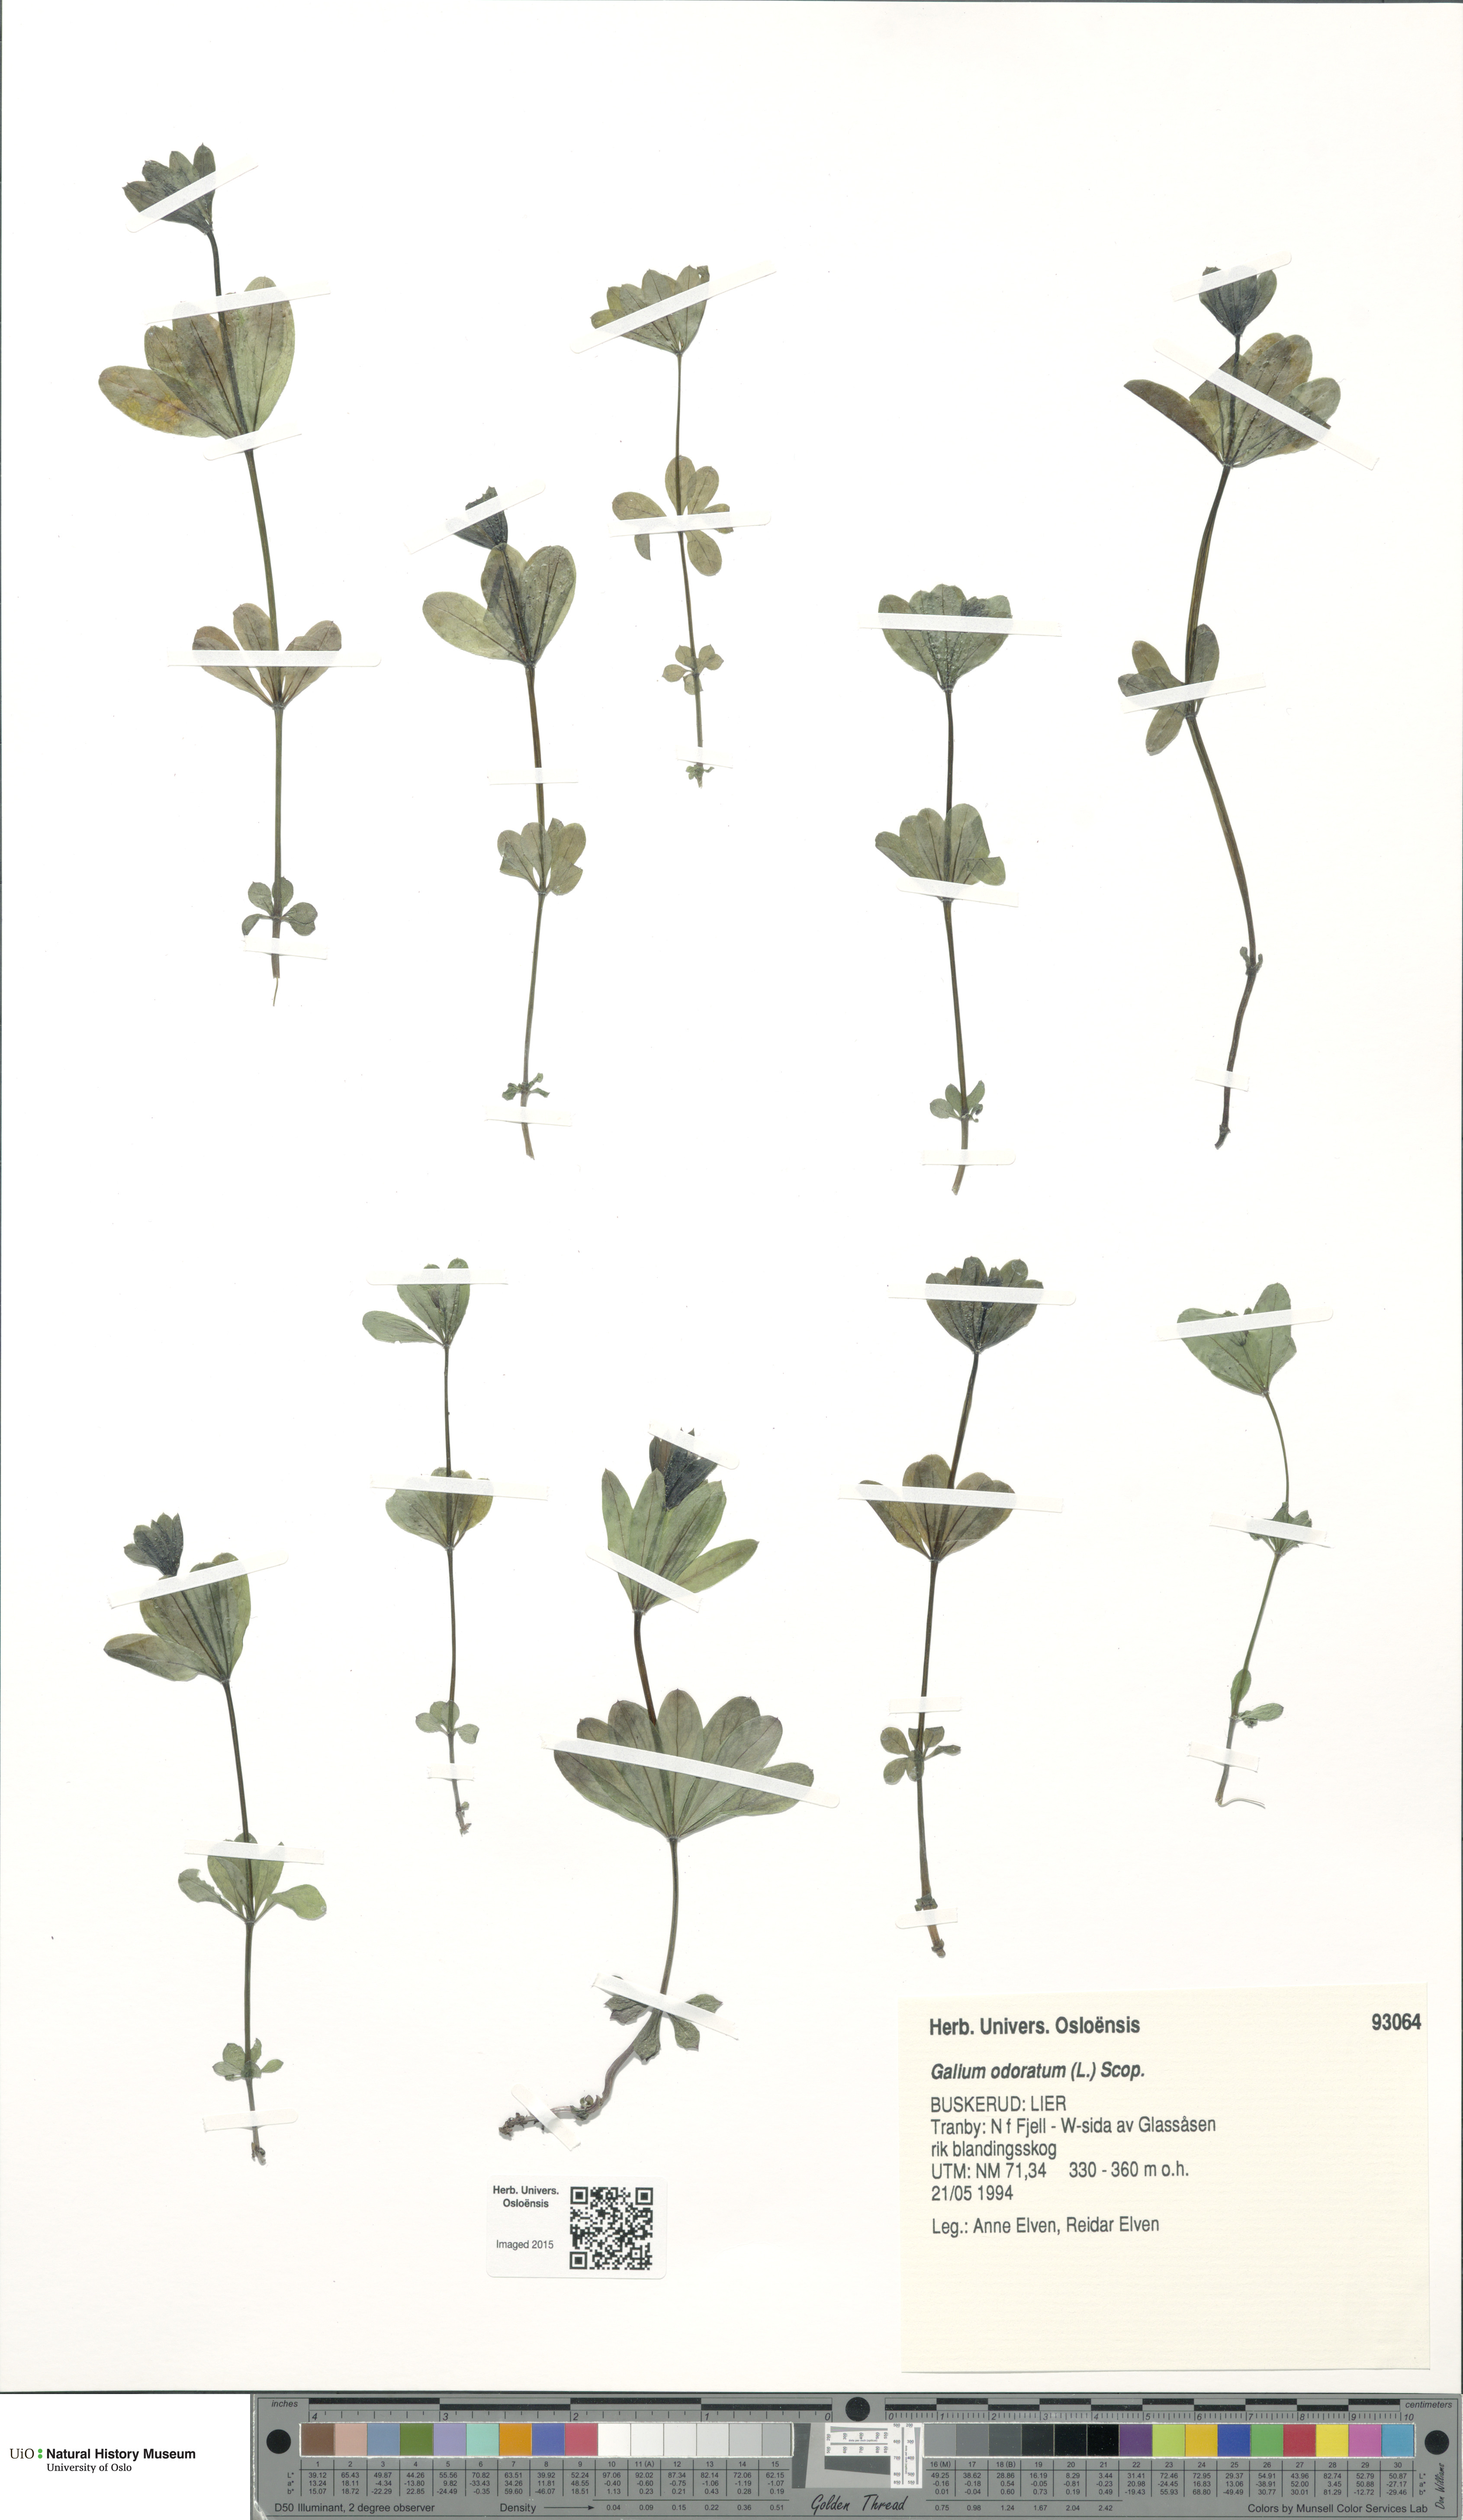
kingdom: Plantae
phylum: Tracheophyta
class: Magnoliopsida
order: Gentianales
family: Rubiaceae
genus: Galium
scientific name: Galium odoratum
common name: Sweet woodruff
